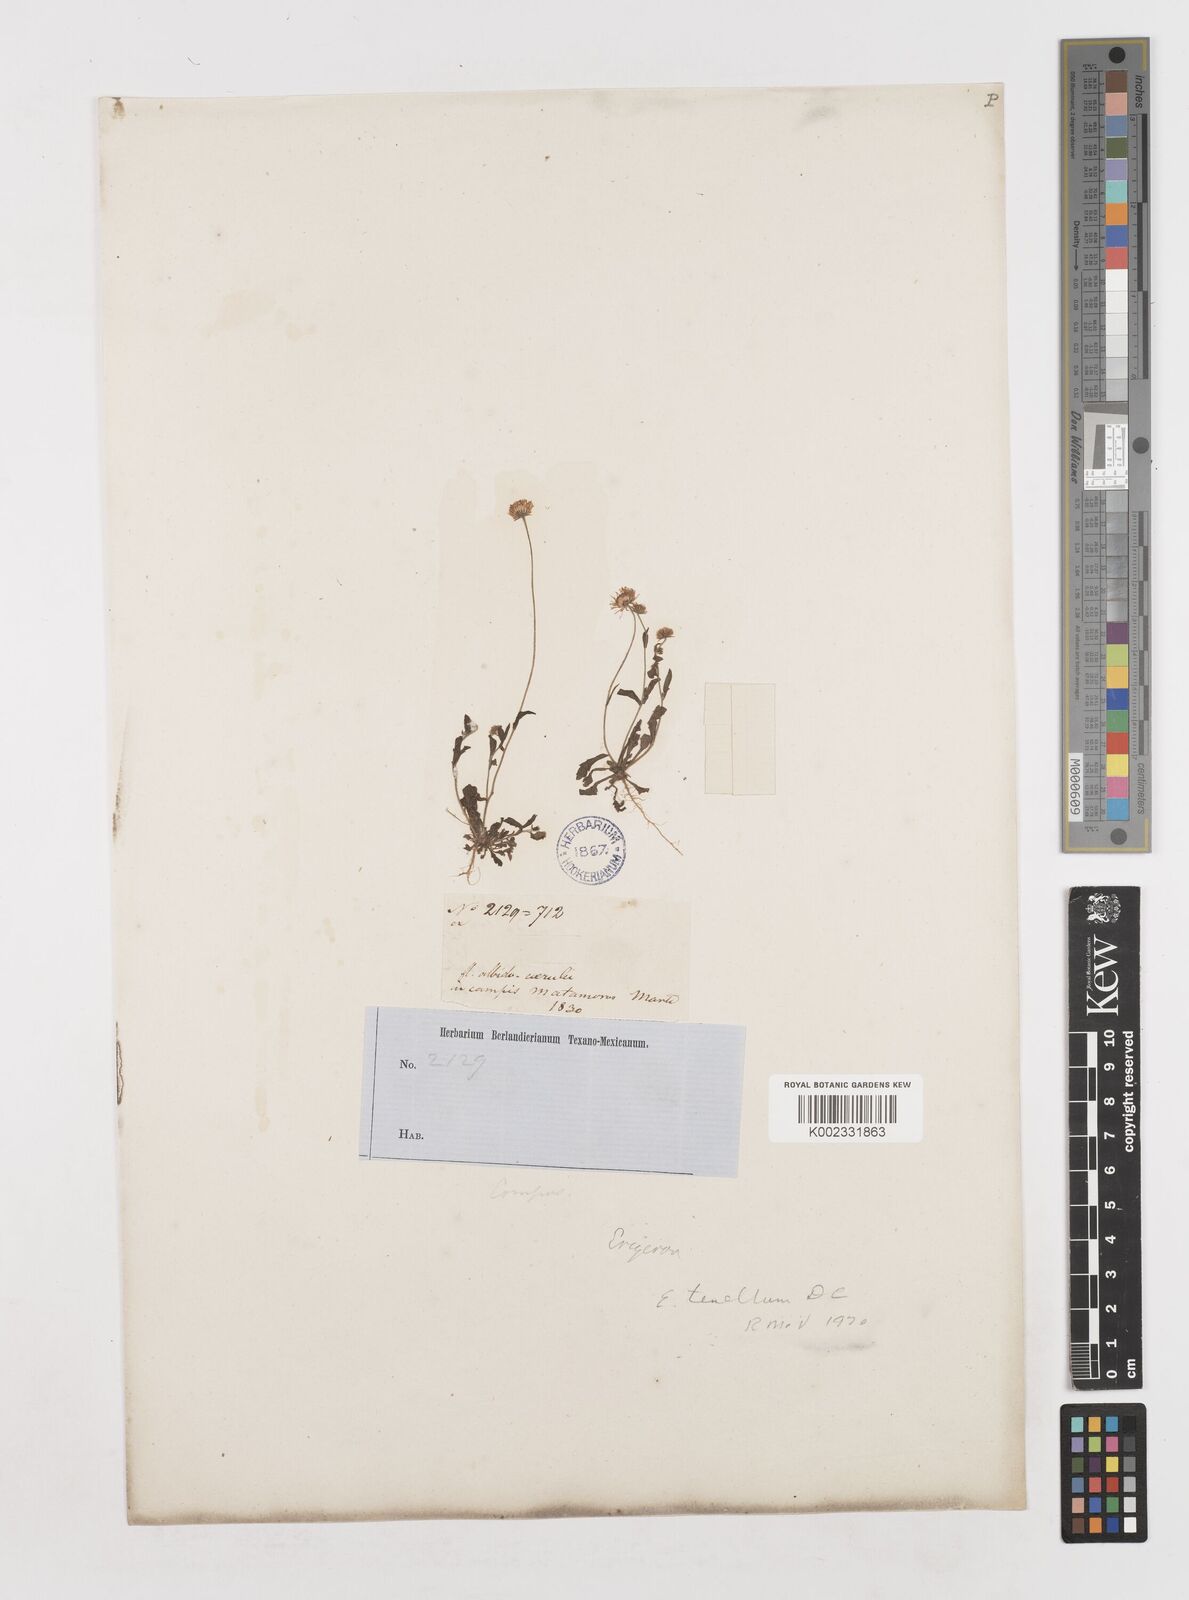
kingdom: Plantae
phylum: Tracheophyta
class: Magnoliopsida
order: Asterales
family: Asteraceae
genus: Erigeron
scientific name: Erigeron tenellus
